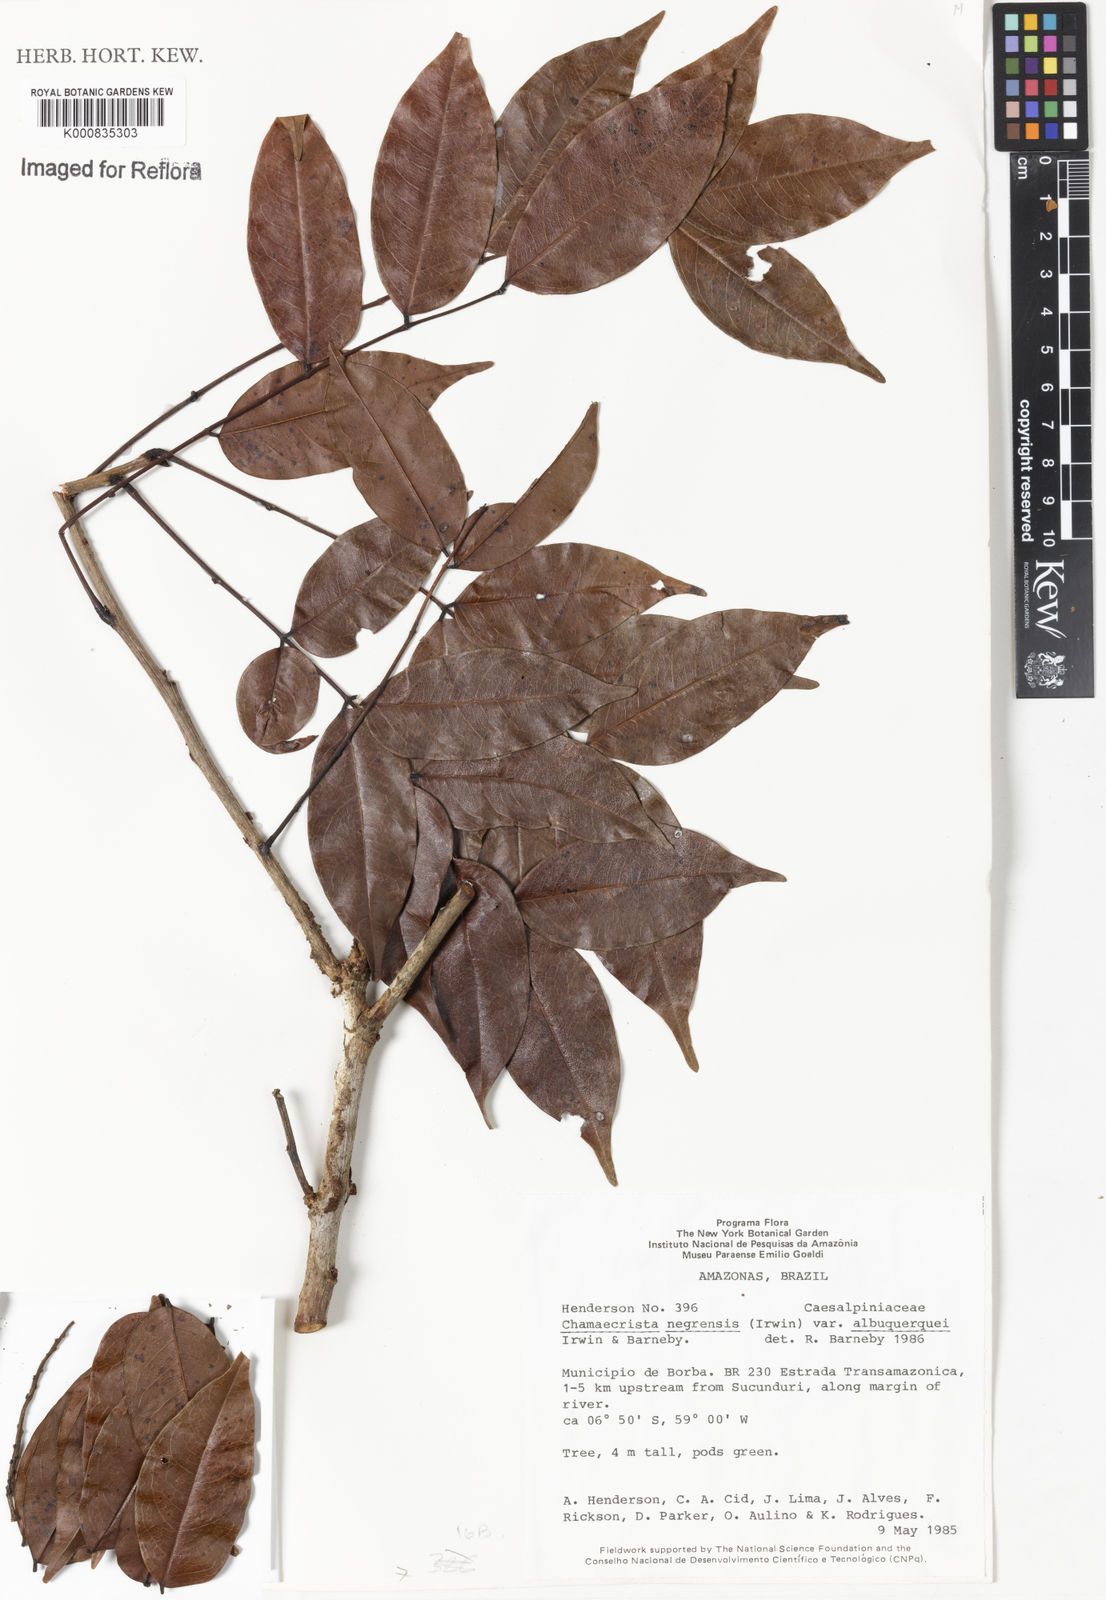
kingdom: Plantae
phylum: Tracheophyta
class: Magnoliopsida
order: Fabales
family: Fabaceae
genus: Chamaecrista
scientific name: Chamaecrista negrensis
